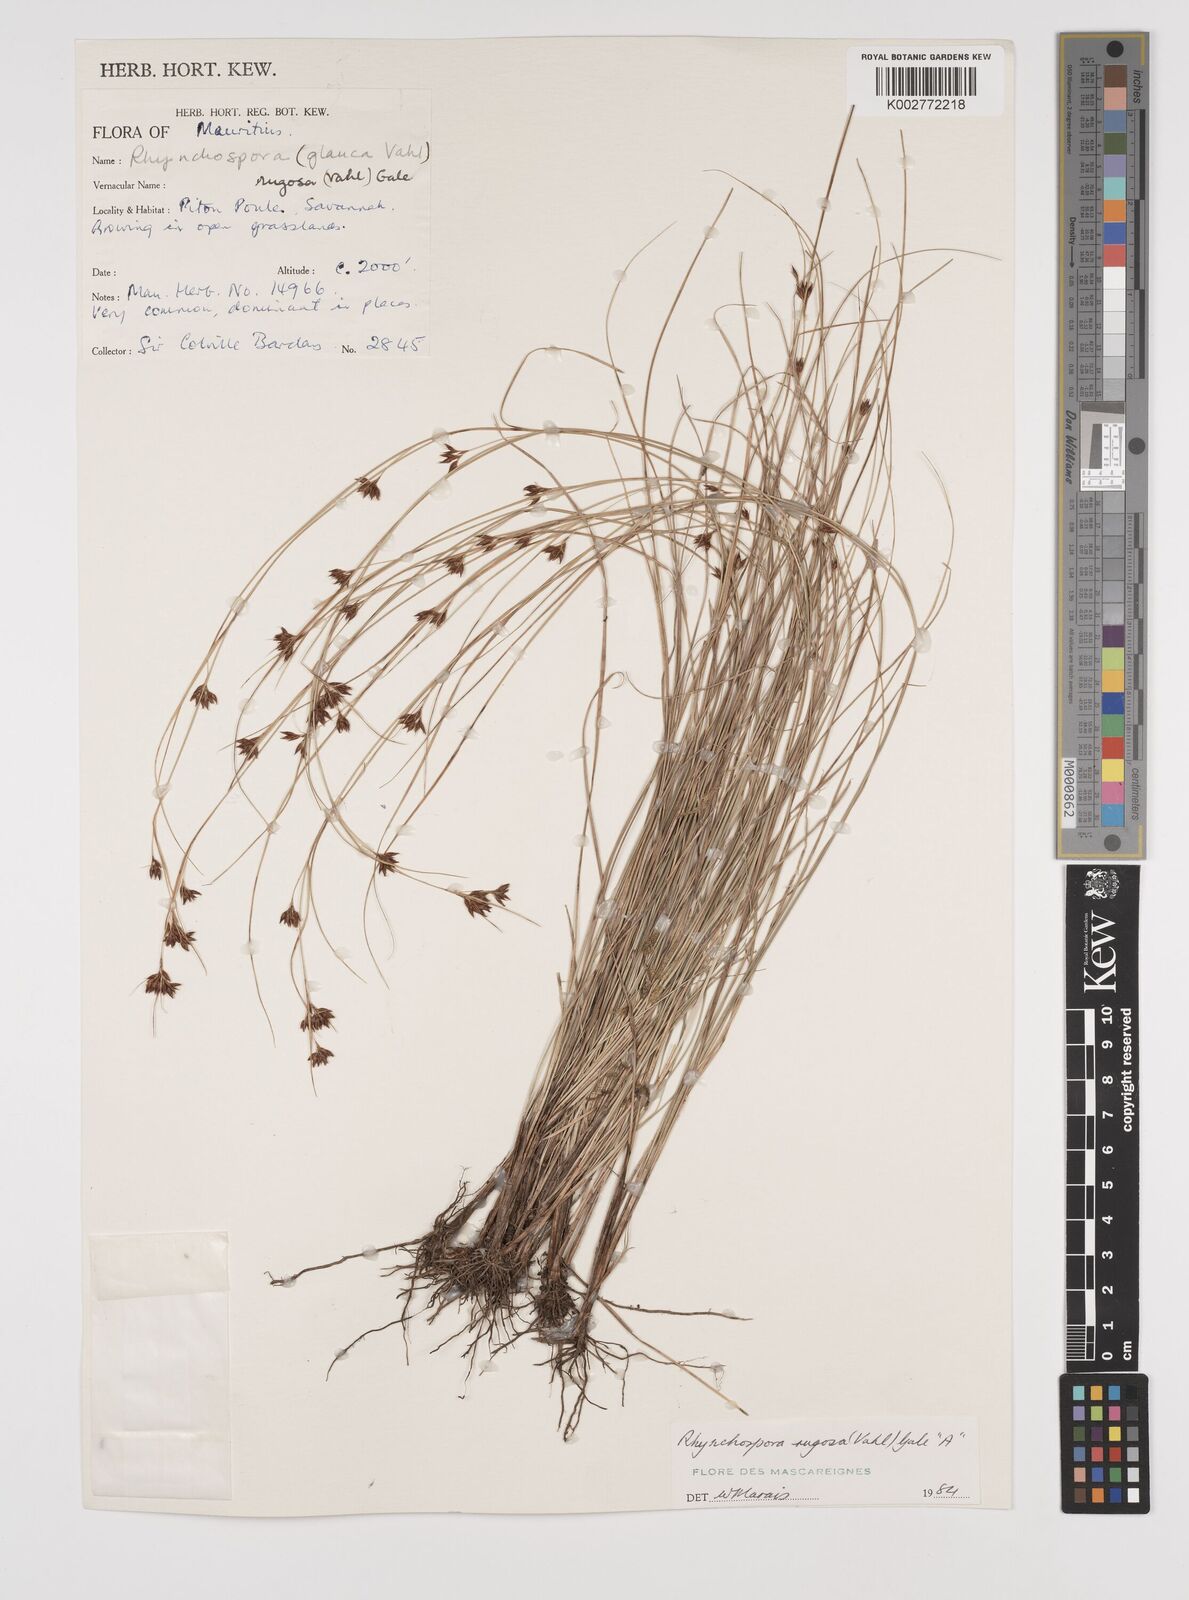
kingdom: Plantae
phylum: Tracheophyta
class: Liliopsida
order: Poales
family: Cyperaceae
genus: Rhynchospora
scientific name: Rhynchospora rugosa
